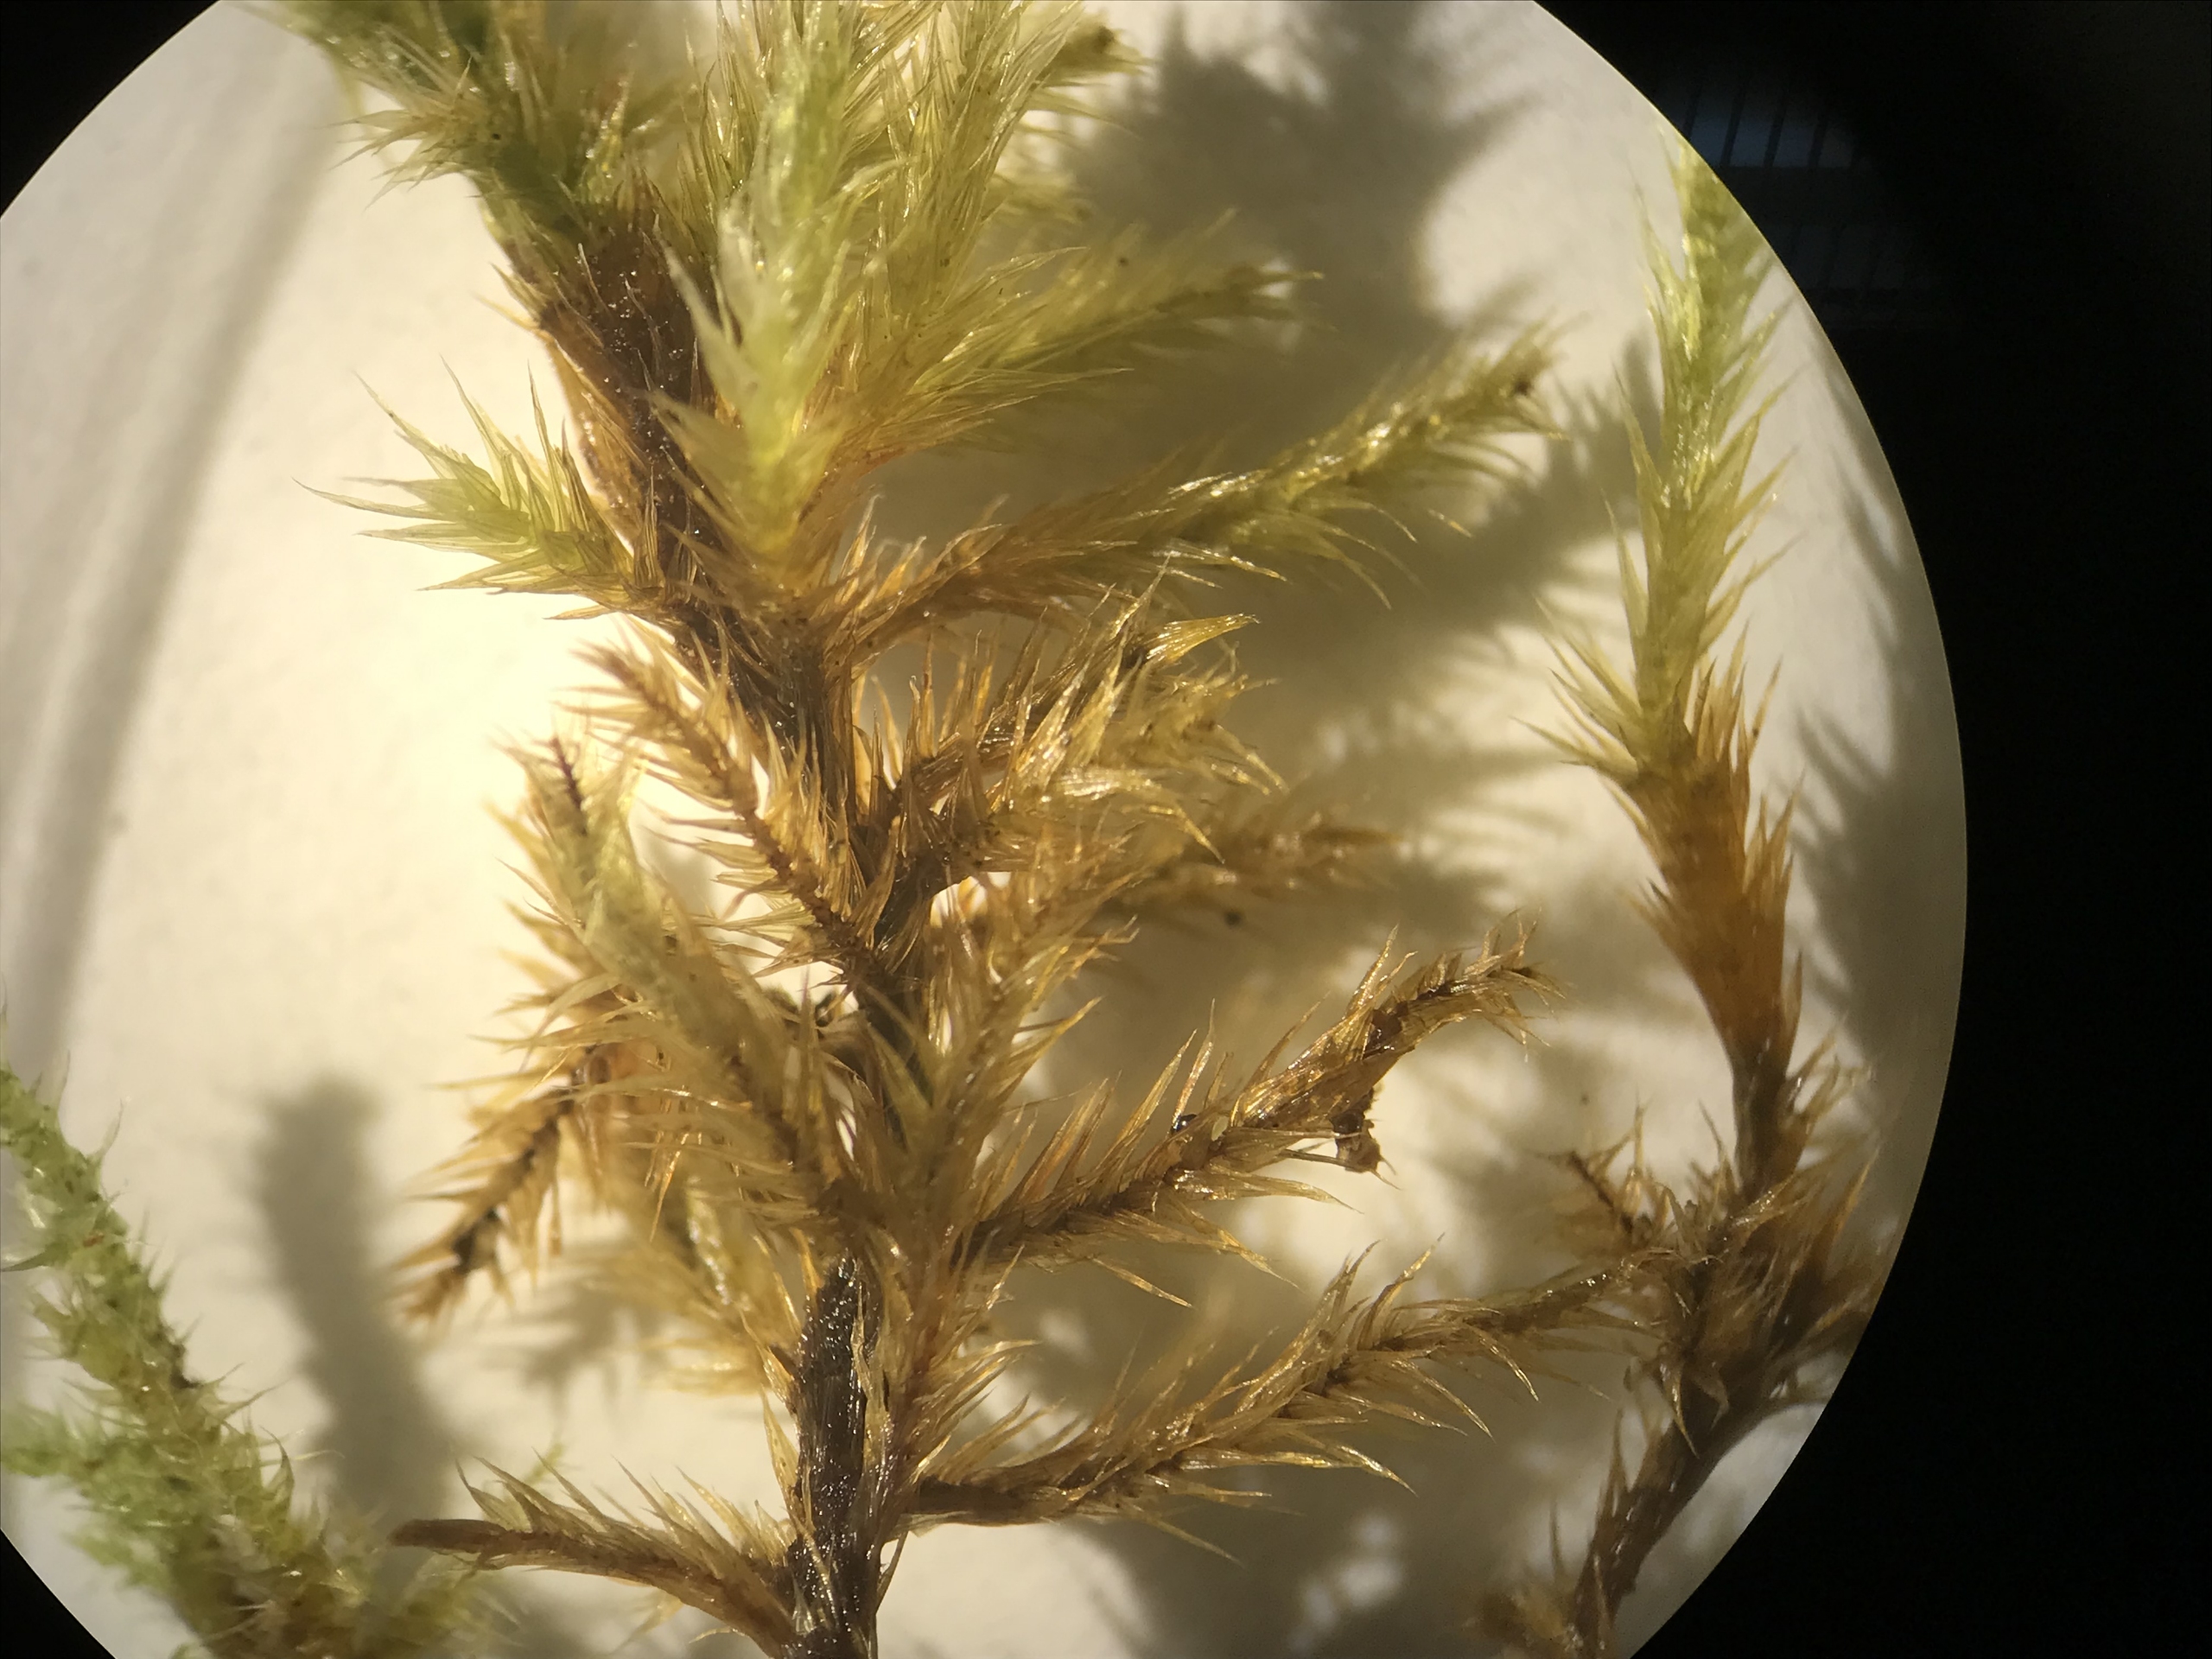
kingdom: Plantae
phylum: Bryophyta
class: Bryopsida
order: Hypnales
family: Amblystegiaceae
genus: Tomentypnum
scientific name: Tomentypnum nitens
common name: Glinsende kærmos
